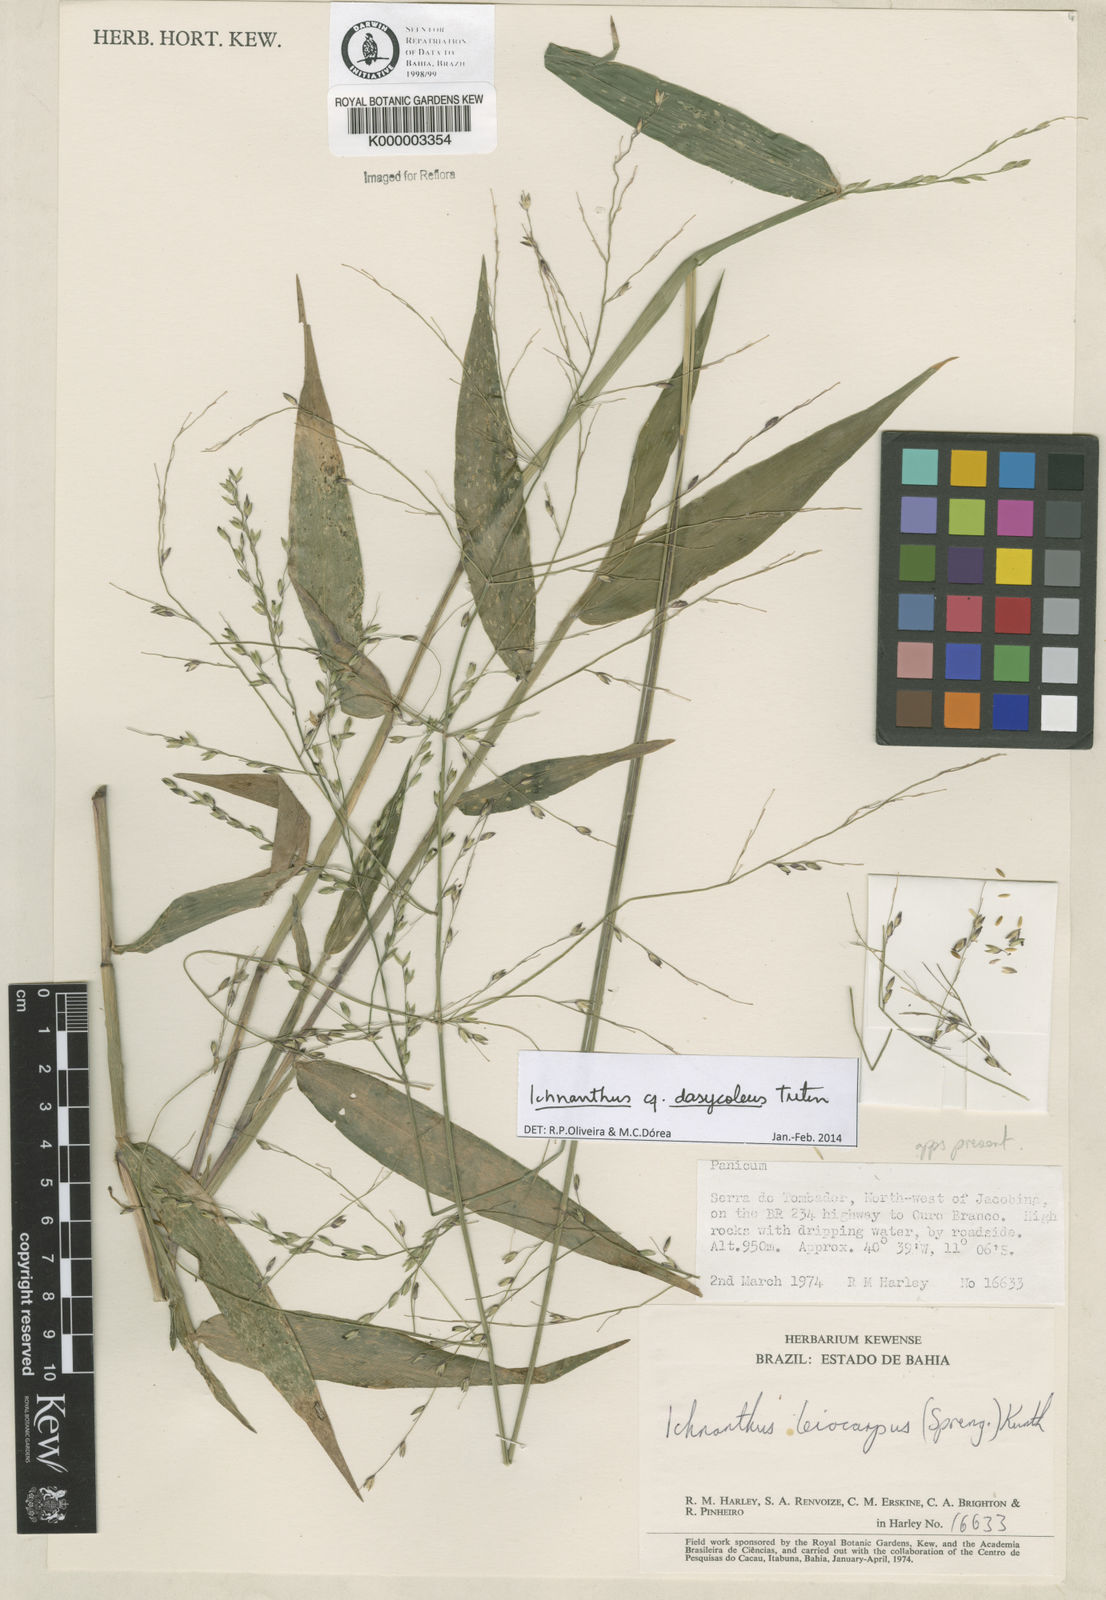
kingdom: Plantae
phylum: Tracheophyta
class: Liliopsida
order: Poales
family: Poaceae
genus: Ichnanthus
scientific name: Ichnanthus leiocarpus
